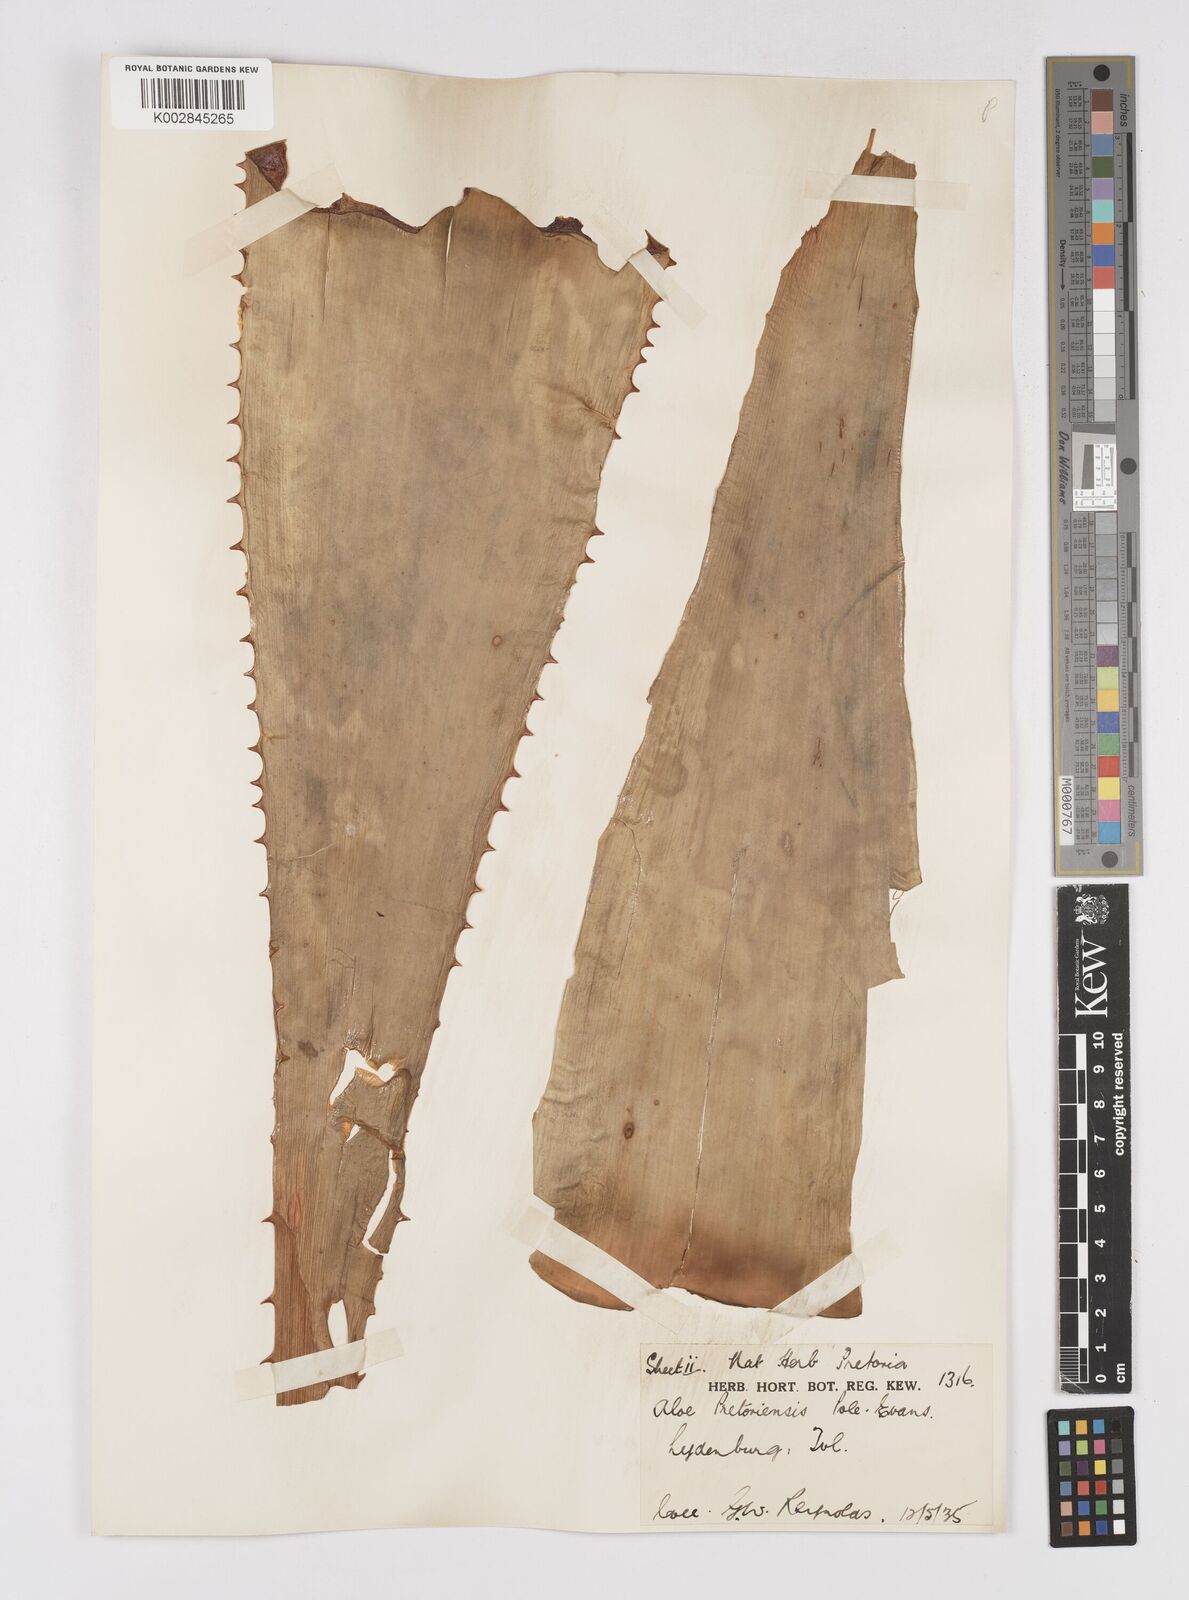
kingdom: Plantae
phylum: Tracheophyta
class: Liliopsida
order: Asparagales
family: Asphodelaceae
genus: Aloe
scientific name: Aloe pretoriensis
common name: Pretoria aloe
